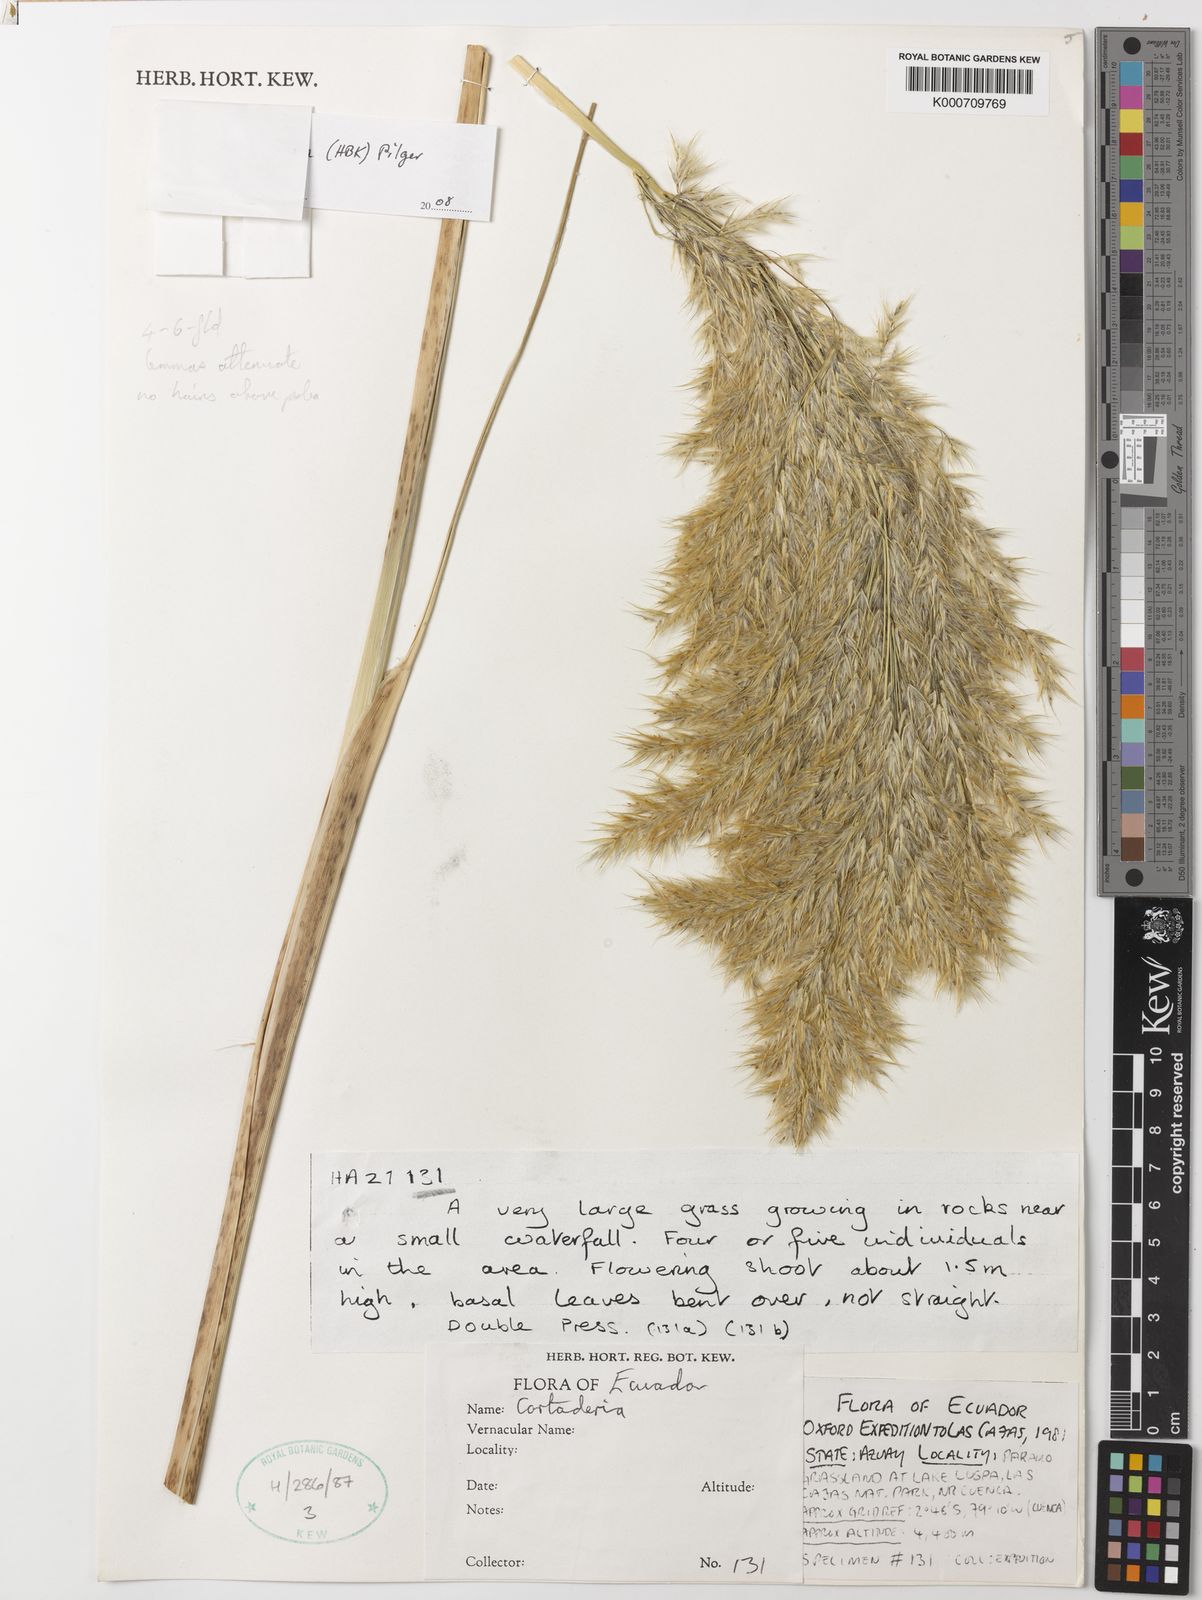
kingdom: Plantae
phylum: Tracheophyta
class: Liliopsida
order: Poales
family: Poaceae
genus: Cortaderia
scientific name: Cortaderia nitida
